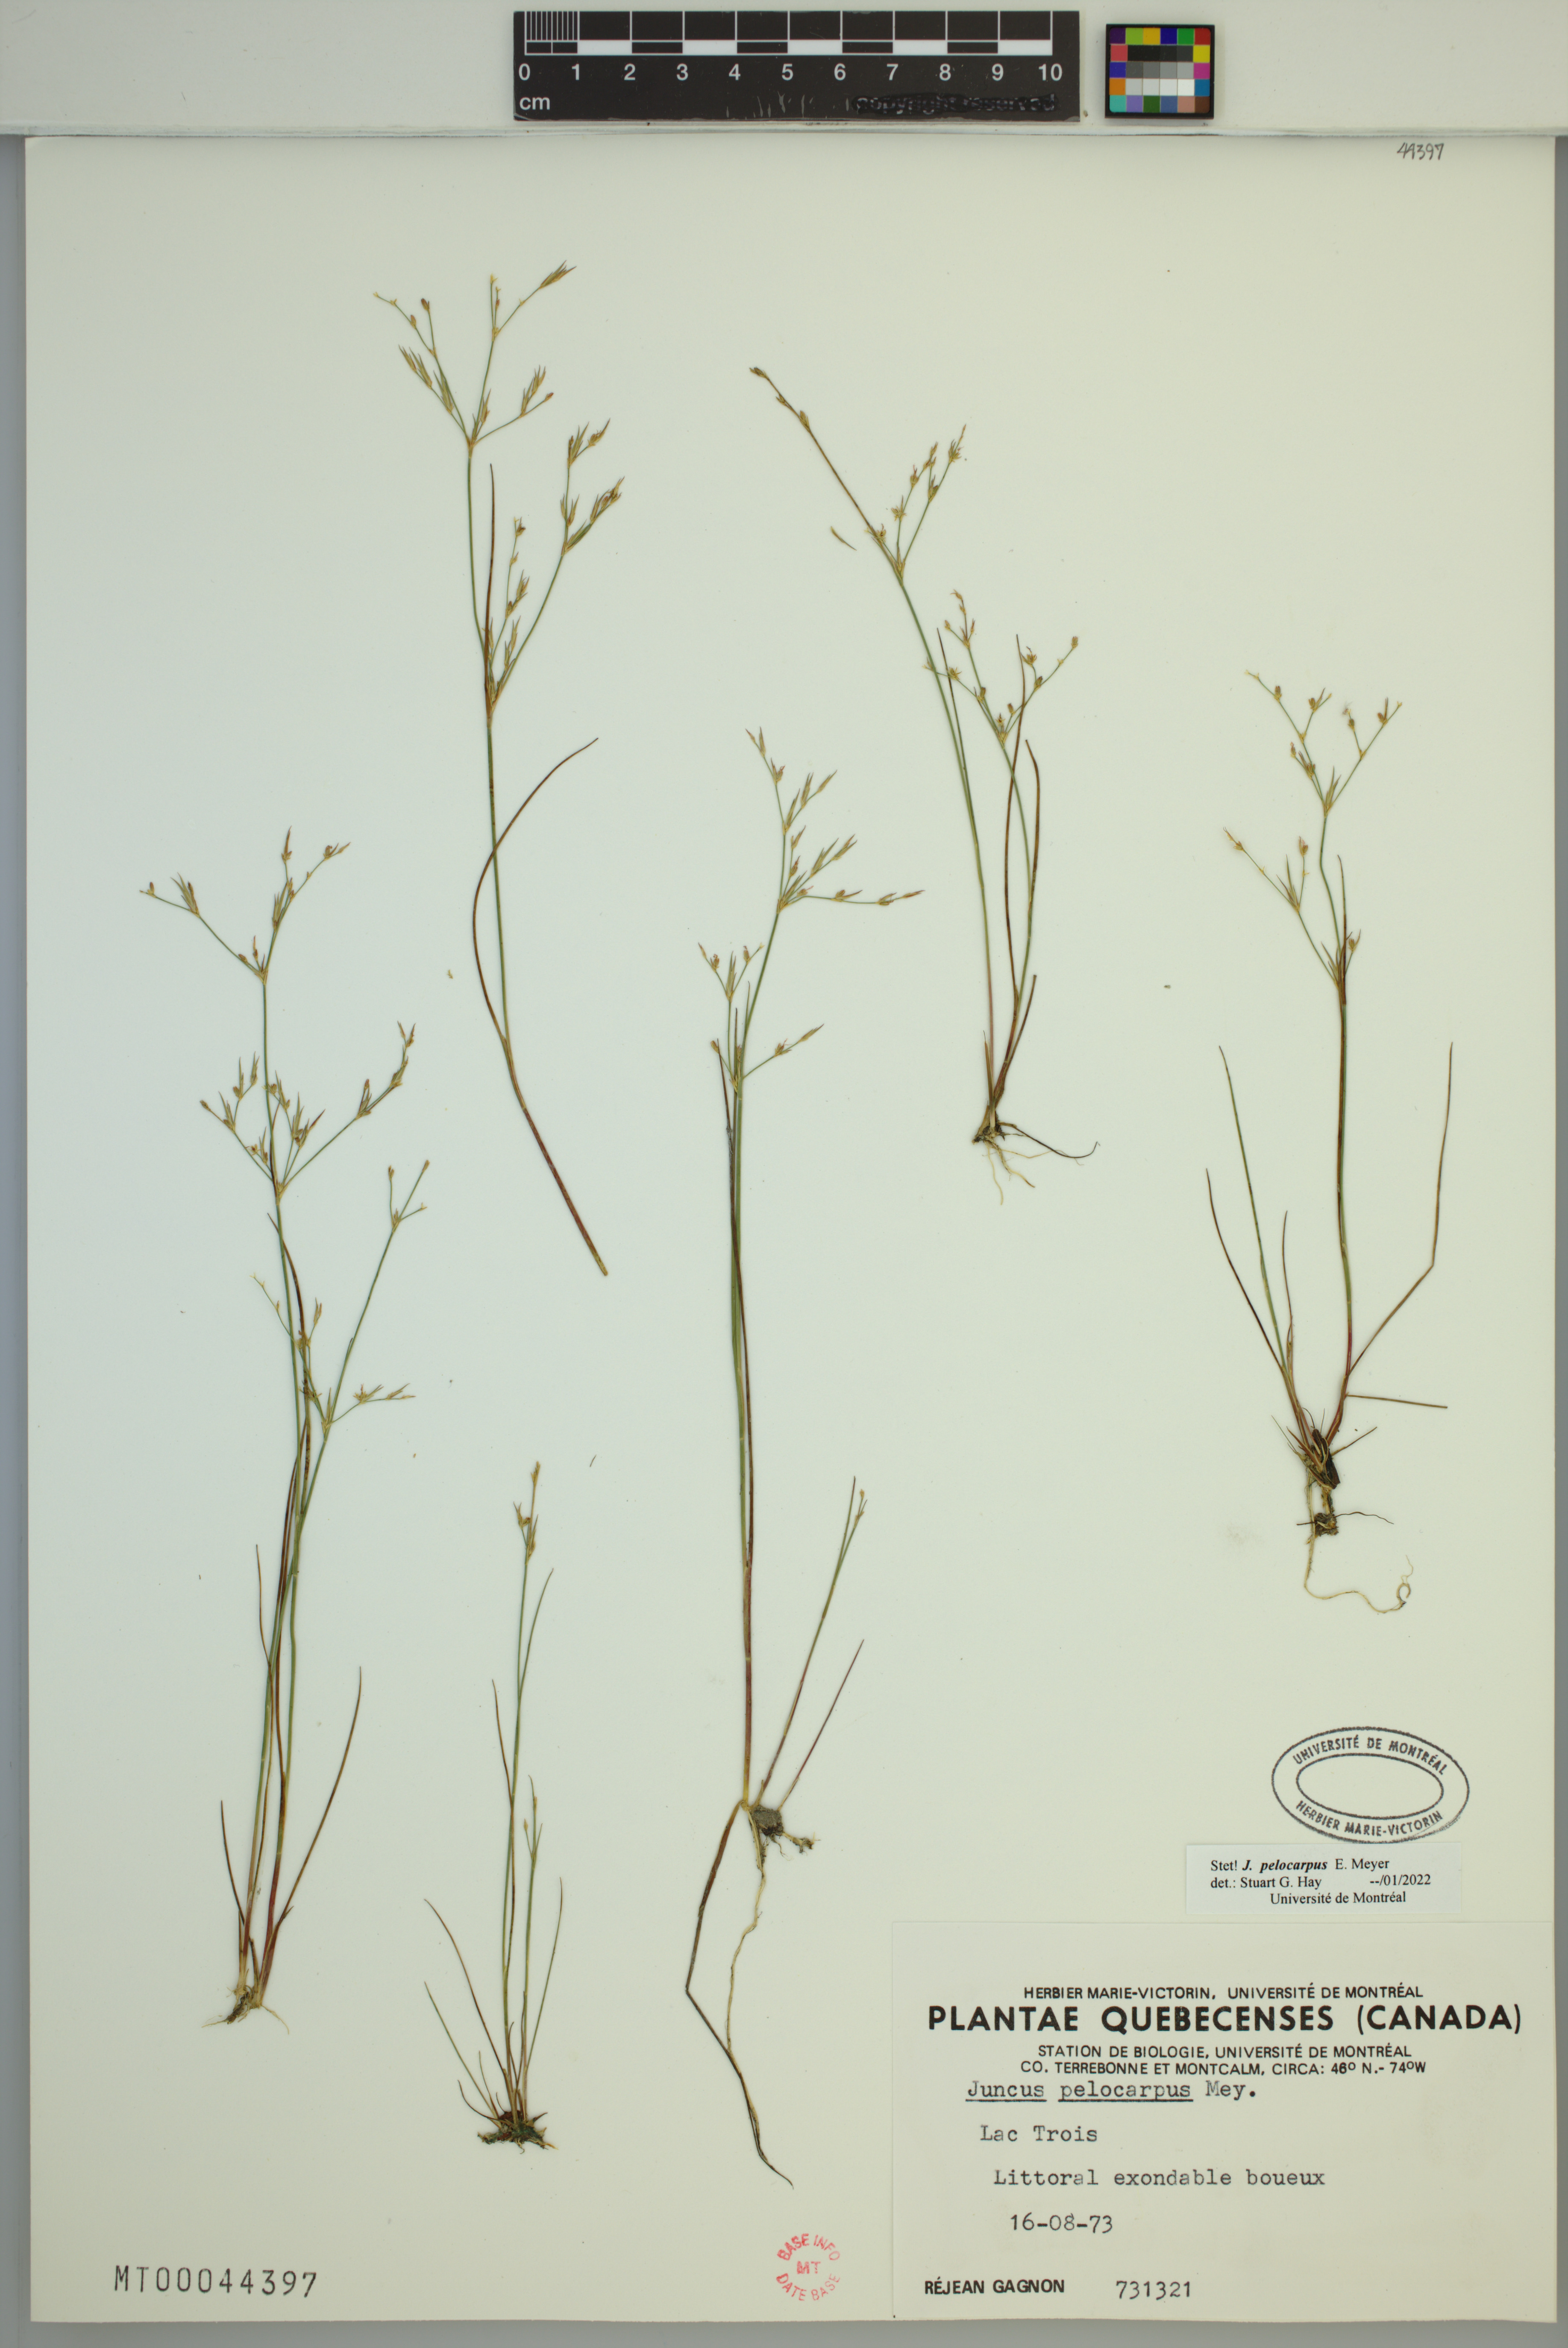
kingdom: Plantae
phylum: Tracheophyta
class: Liliopsida
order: Poales
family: Juncaceae
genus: Juncus
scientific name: Juncus pelocarpus
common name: Brown-fruited rush
